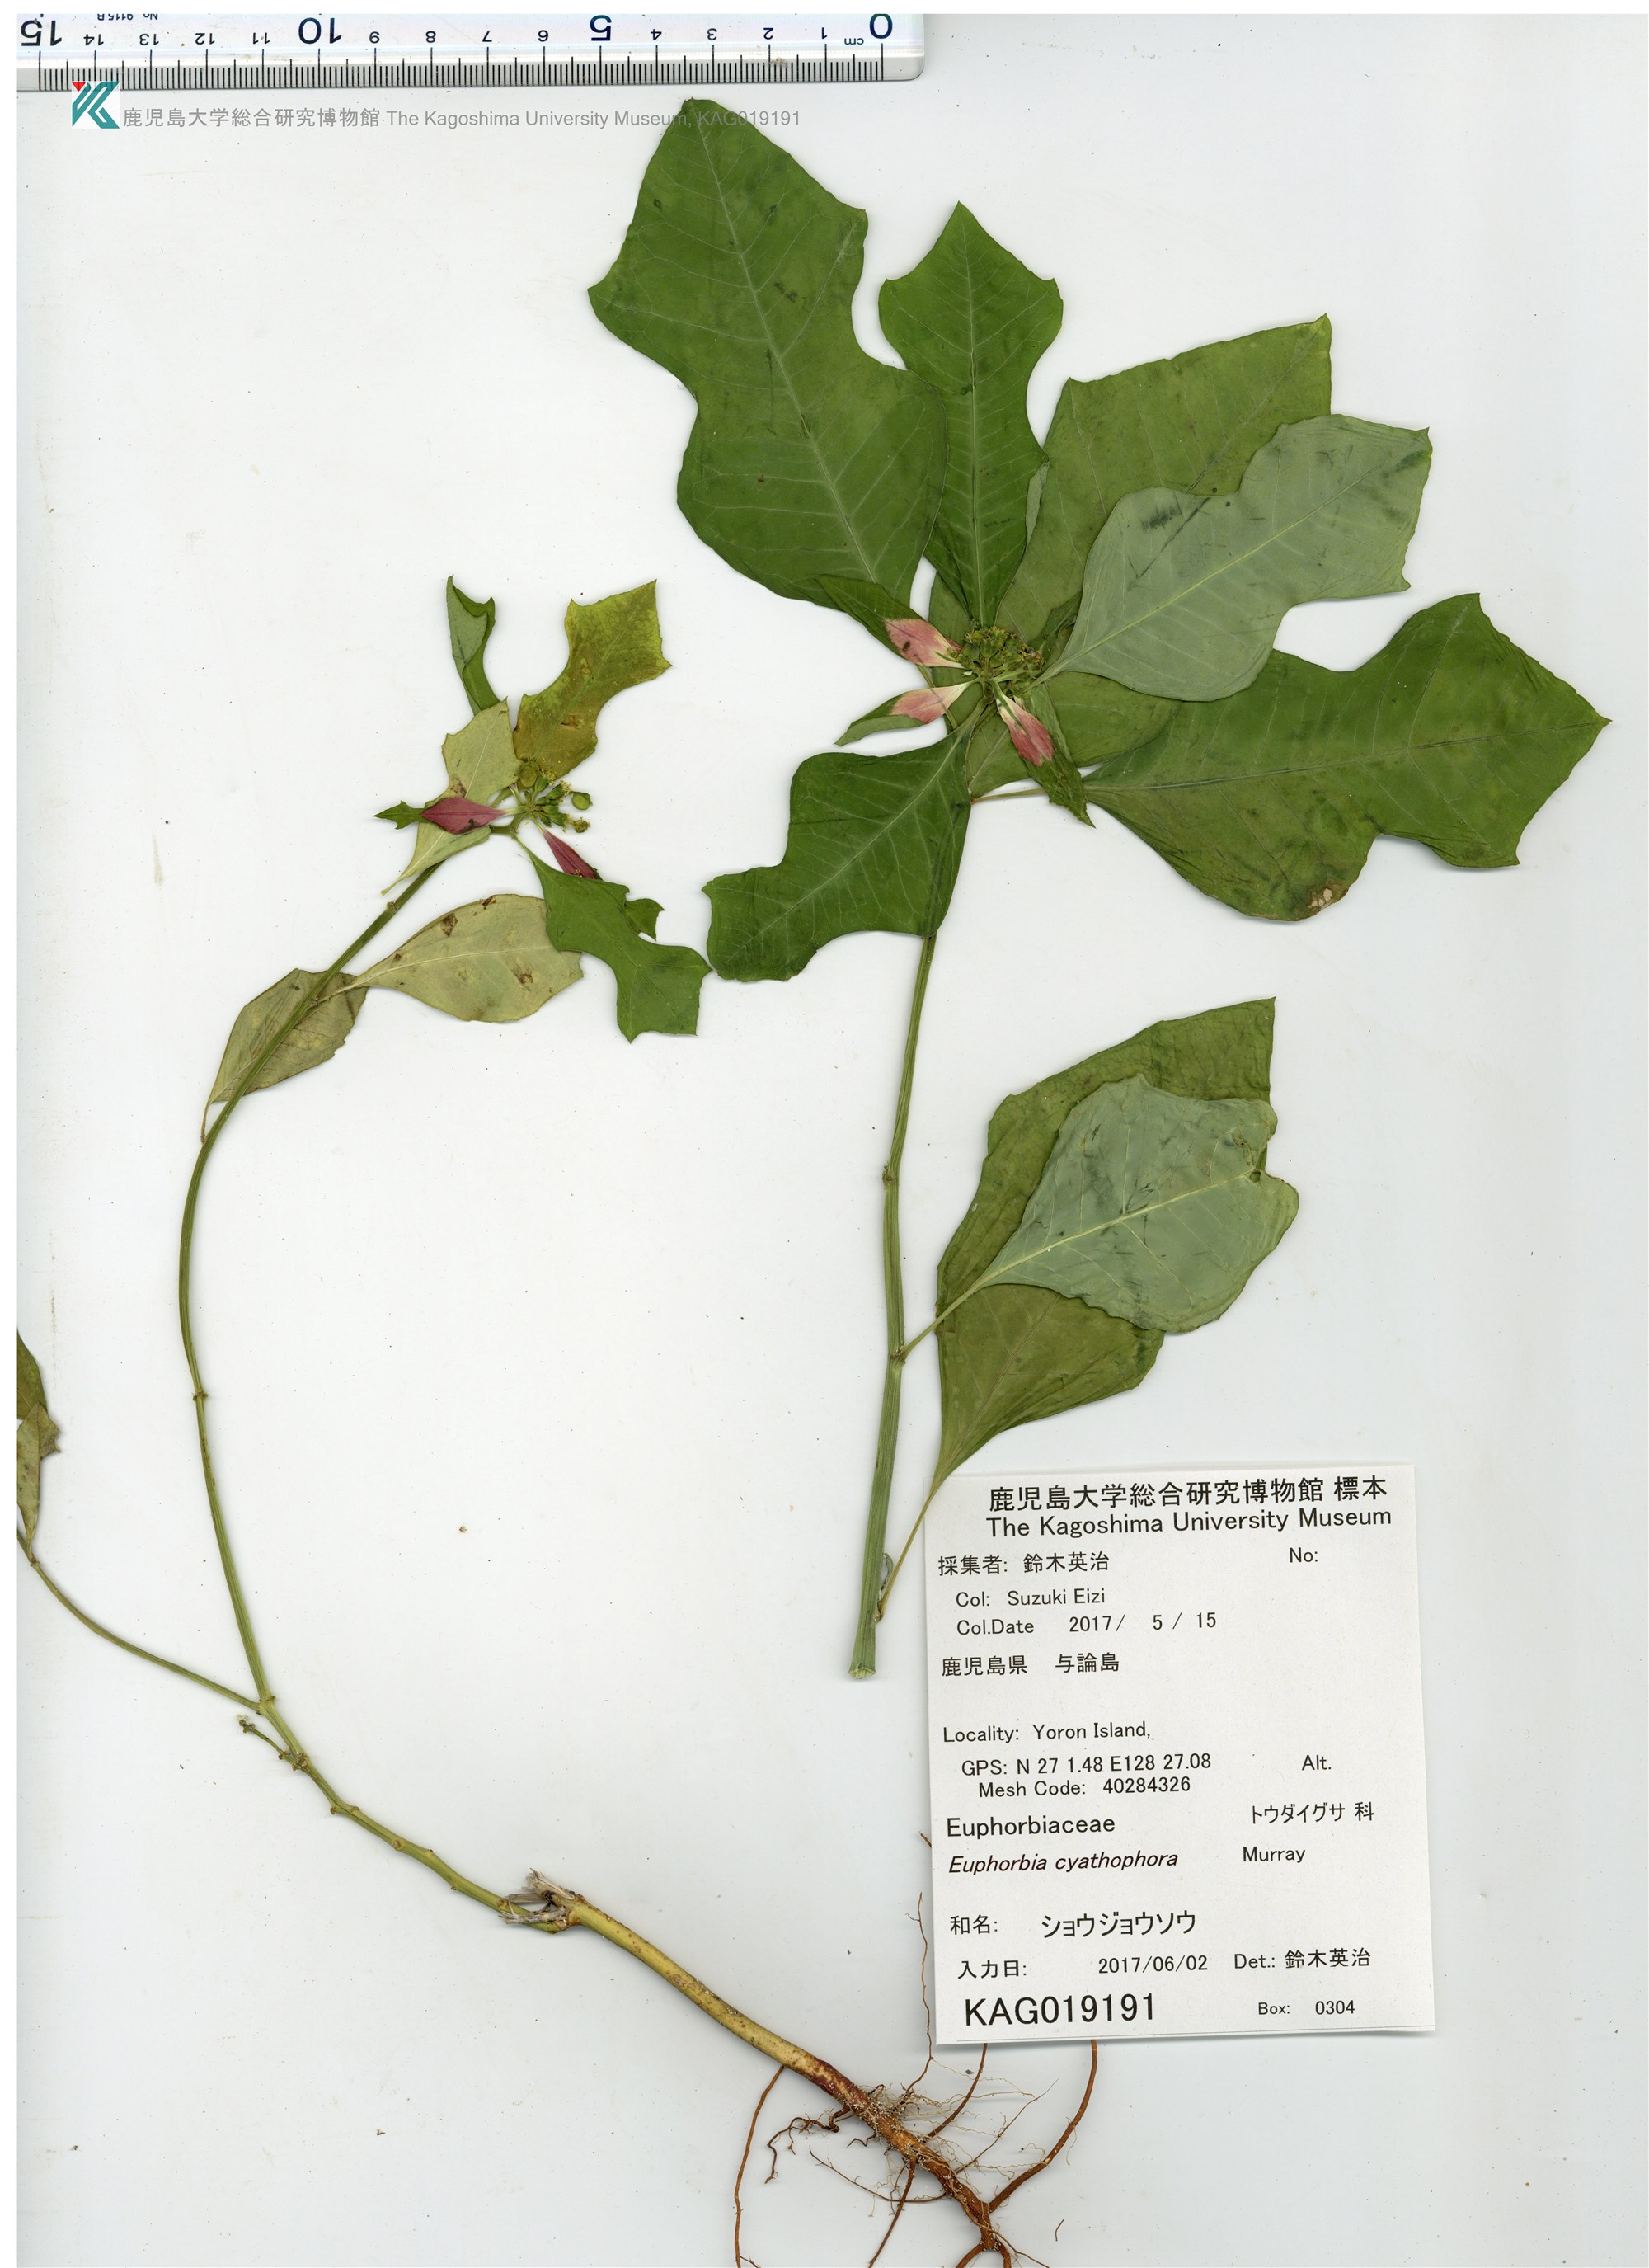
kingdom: Plantae
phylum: Tracheophyta
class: Magnoliopsida
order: Malpighiales
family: Euphorbiaceae
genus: Euphorbia
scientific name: Euphorbia heterophylla
